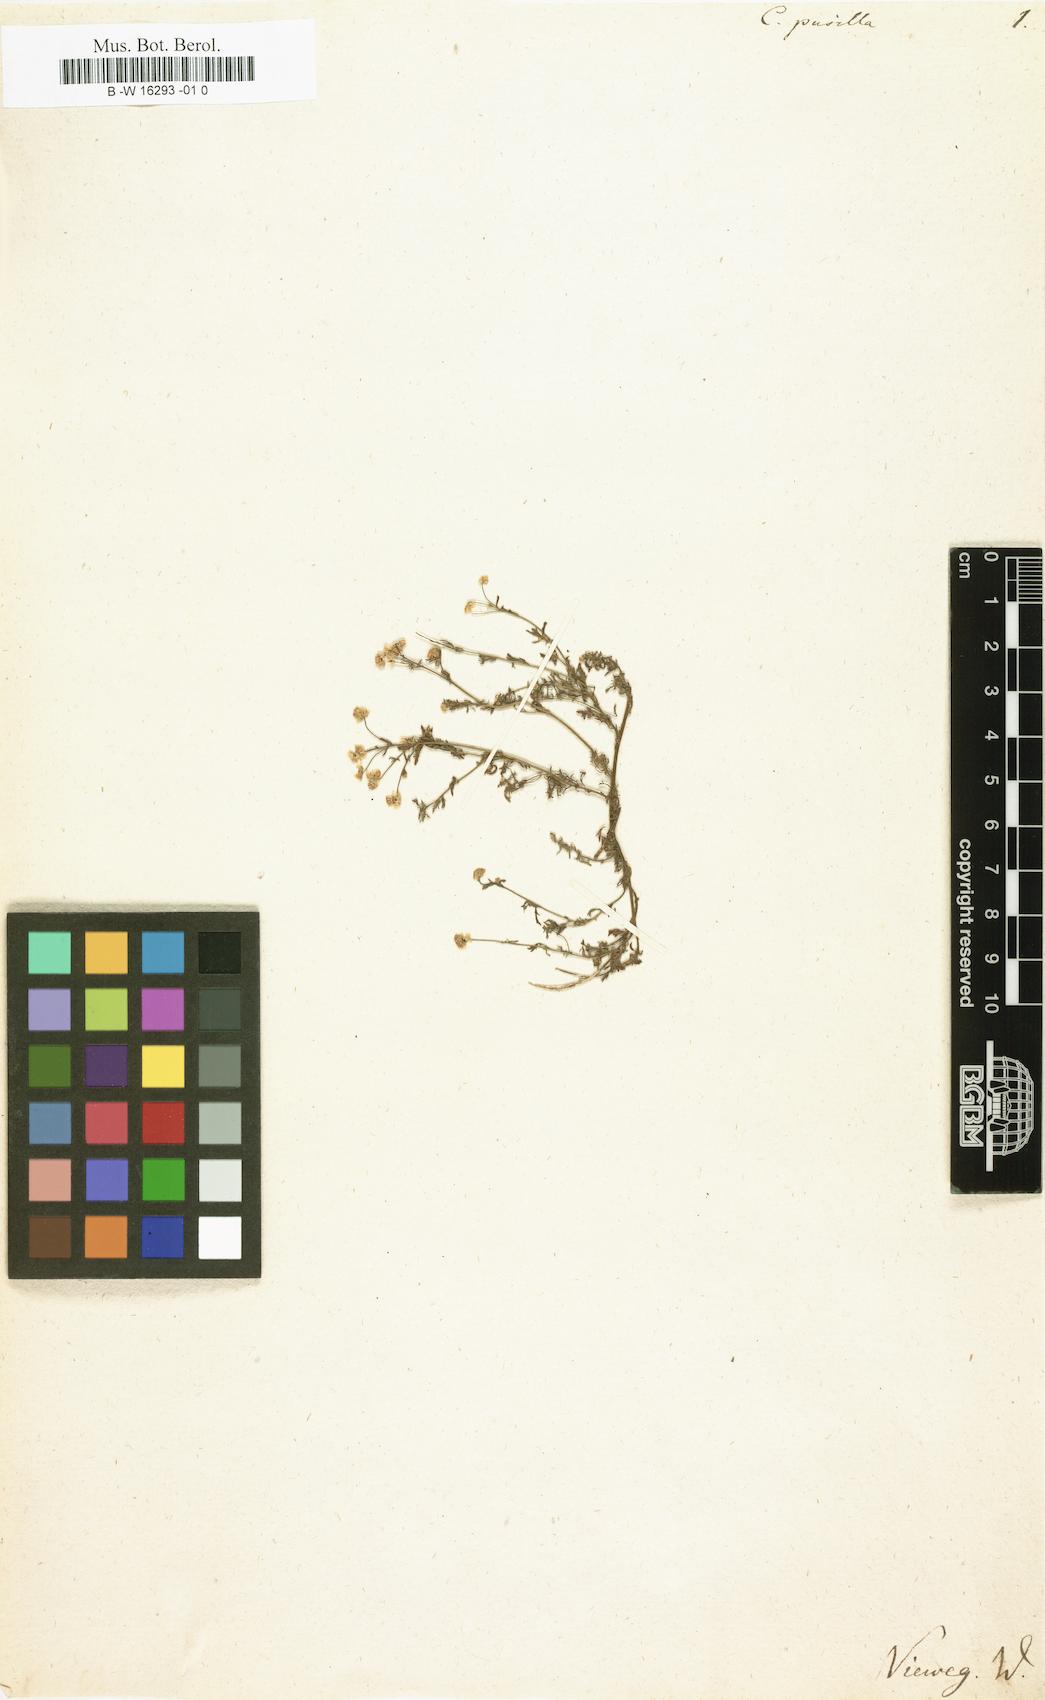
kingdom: Plantae
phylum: Tracheophyta
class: Magnoliopsida
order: Asterales
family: Asteraceae
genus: Cotula
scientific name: Cotula pusilla
